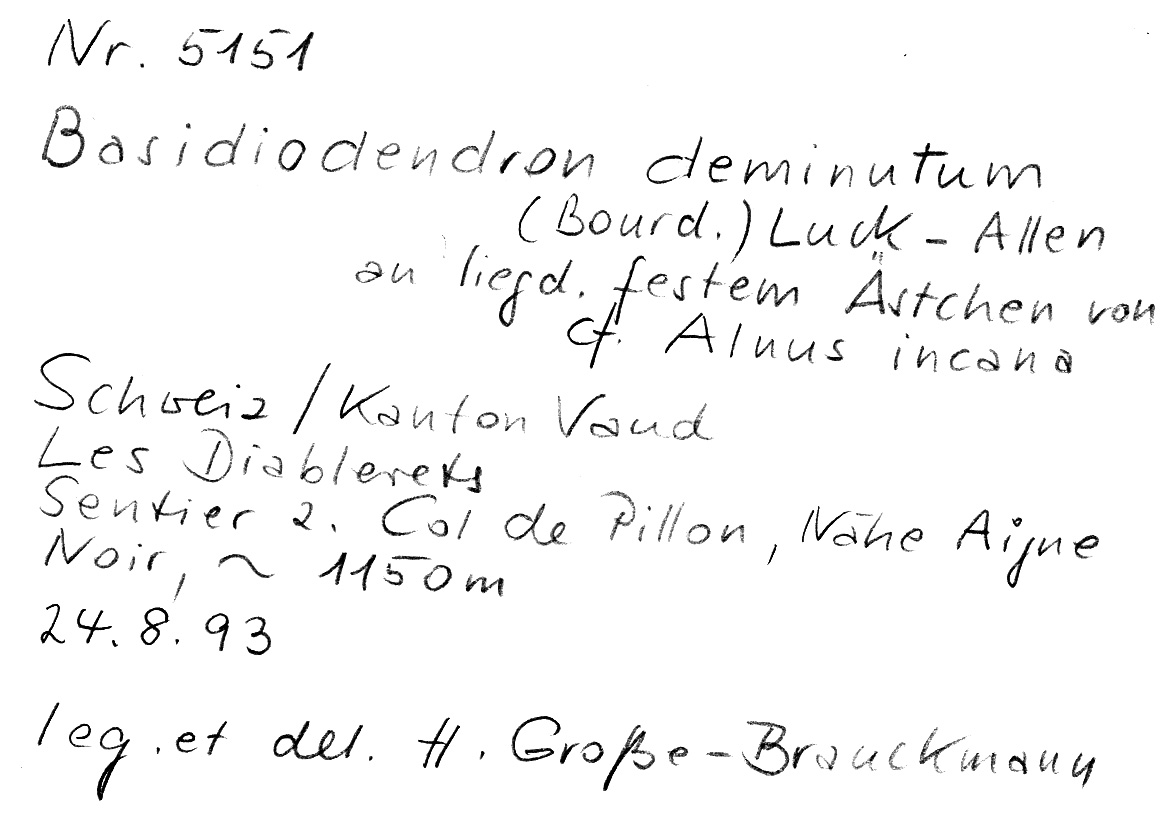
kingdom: Fungi
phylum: Basidiomycota
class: Agaricomycetes
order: Auriculariales
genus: Basidiodendron
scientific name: Basidiodendron deminutum
